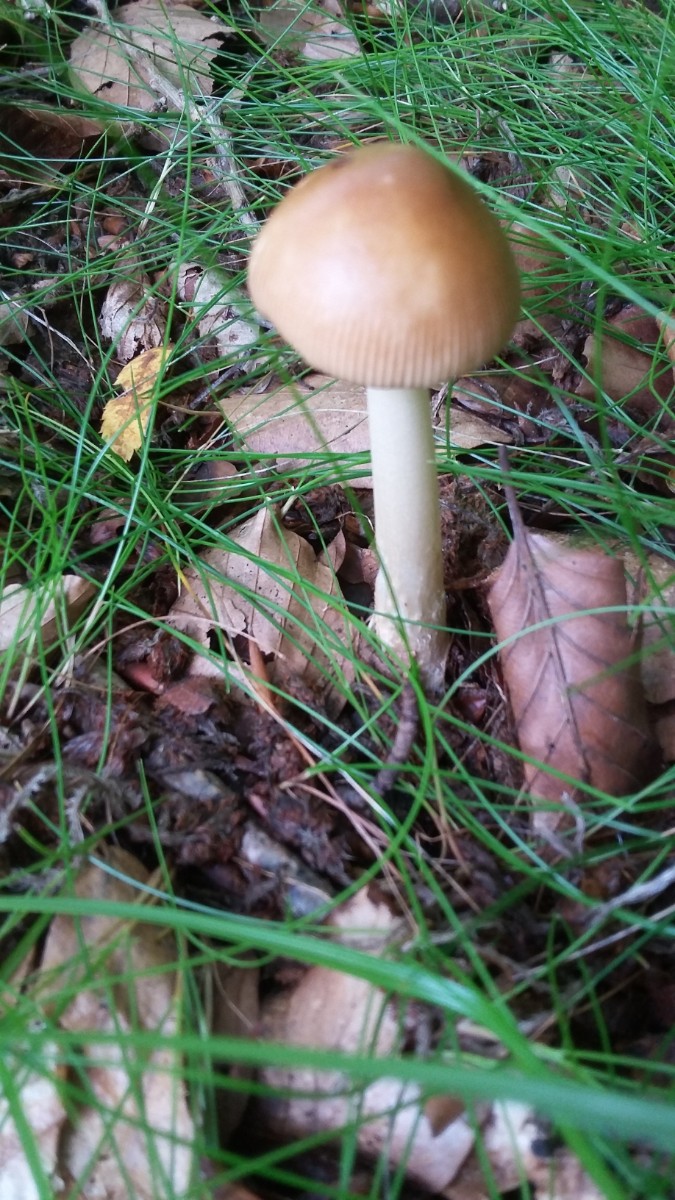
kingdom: Fungi
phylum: Basidiomycota
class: Agaricomycetes
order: Agaricales
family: Amanitaceae
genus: Amanita
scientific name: Amanita fulva
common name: brun kam-fluesvamp
